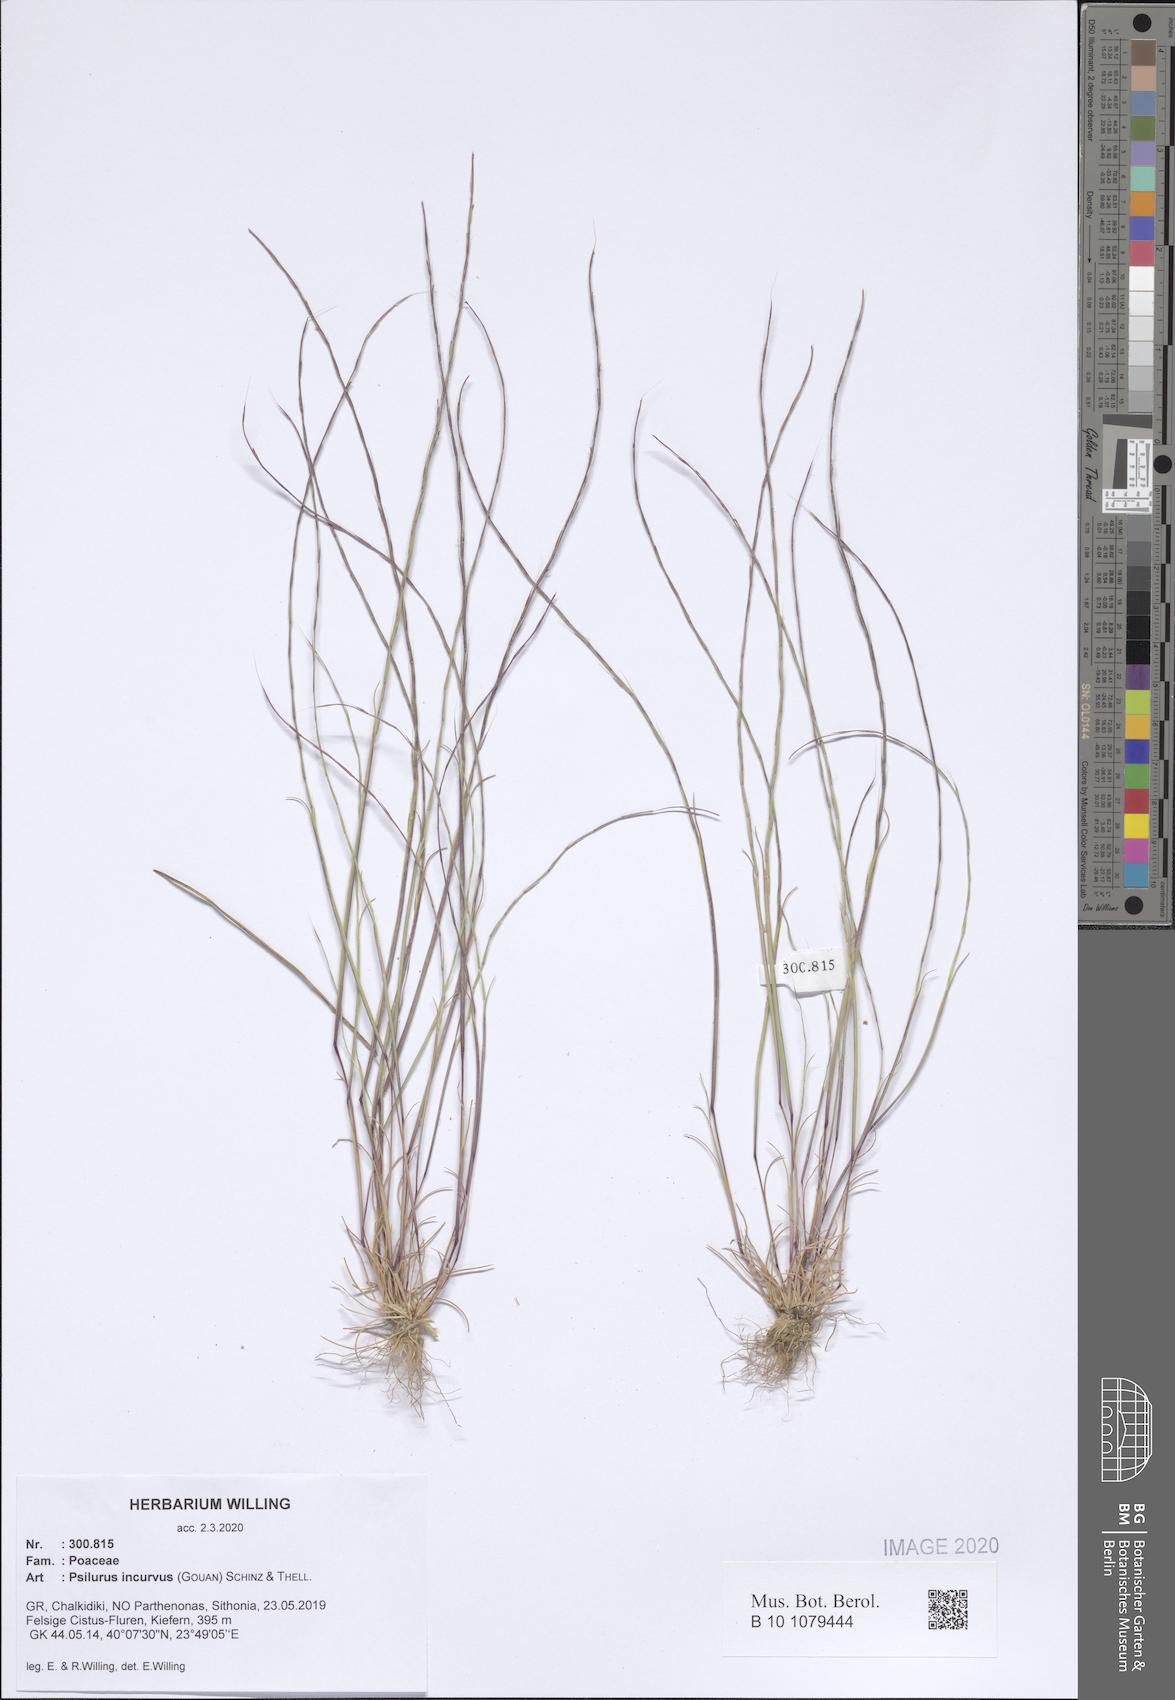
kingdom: Plantae
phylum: Tracheophyta
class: Liliopsida
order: Poales
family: Poaceae
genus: Festuca
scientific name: Festuca incurva
